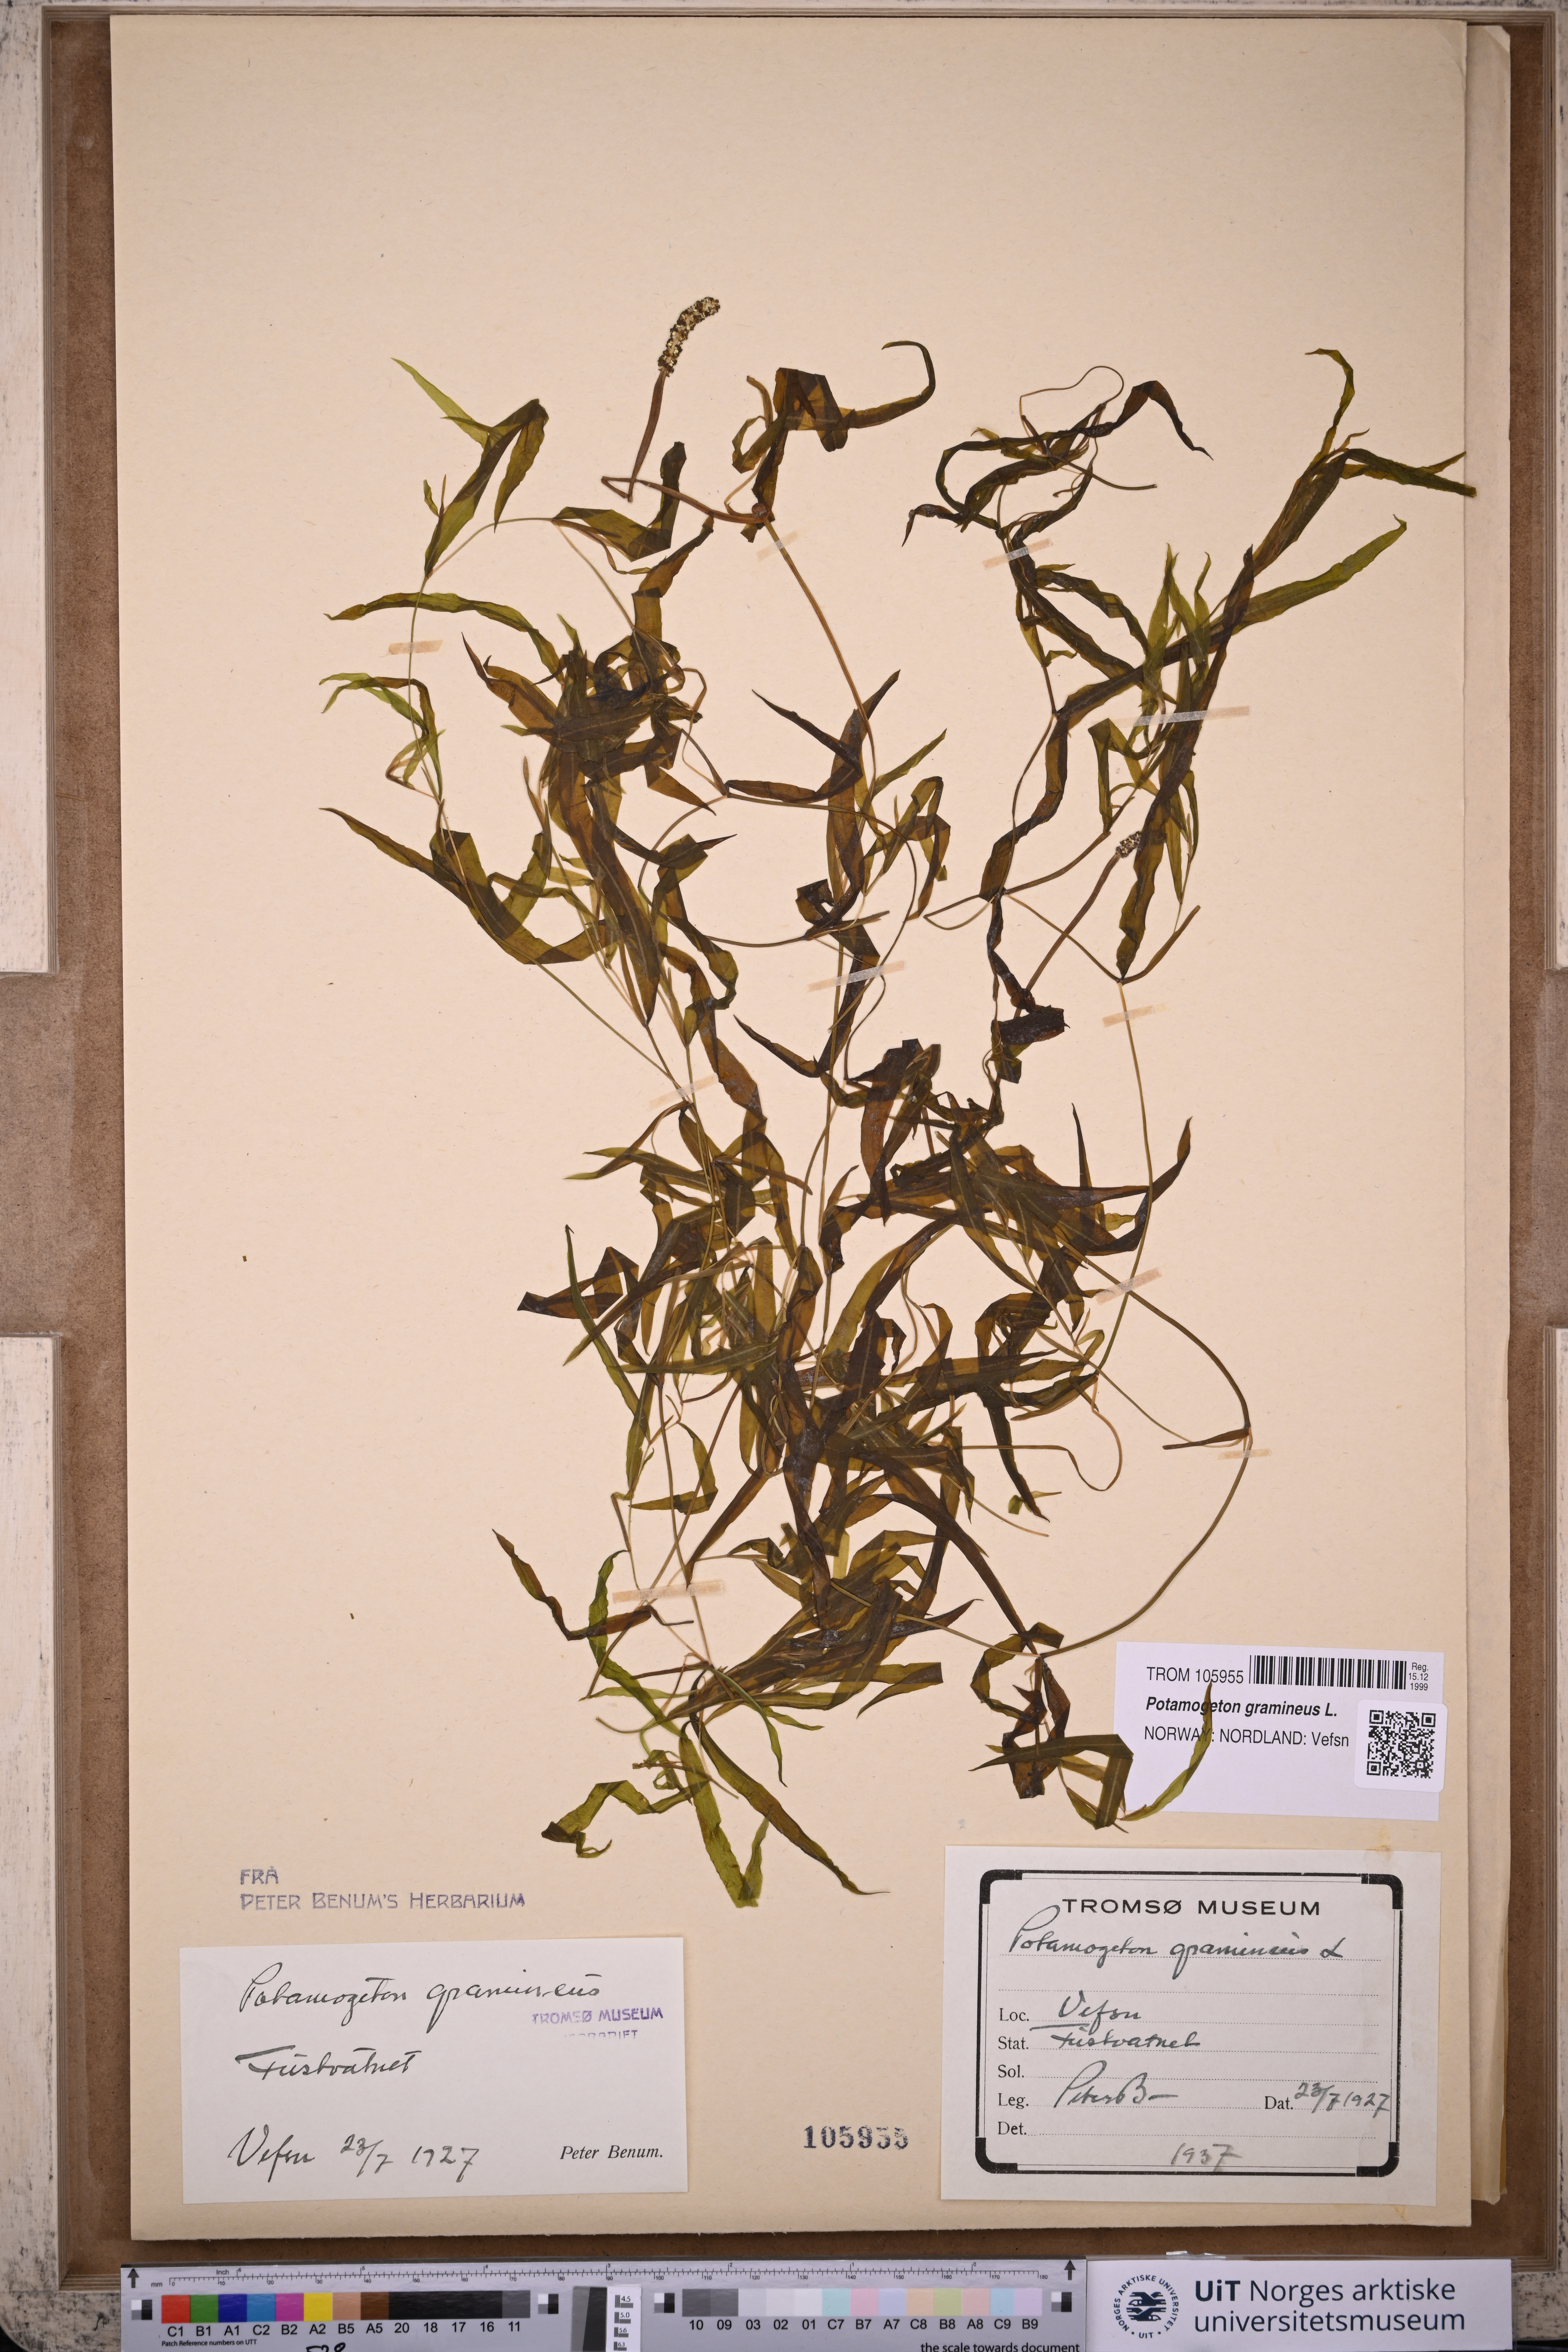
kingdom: Plantae
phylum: Tracheophyta
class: Liliopsida
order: Alismatales
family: Potamogetonaceae
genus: Potamogeton
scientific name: Potamogeton gramineus
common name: Various-leaved pondweed
